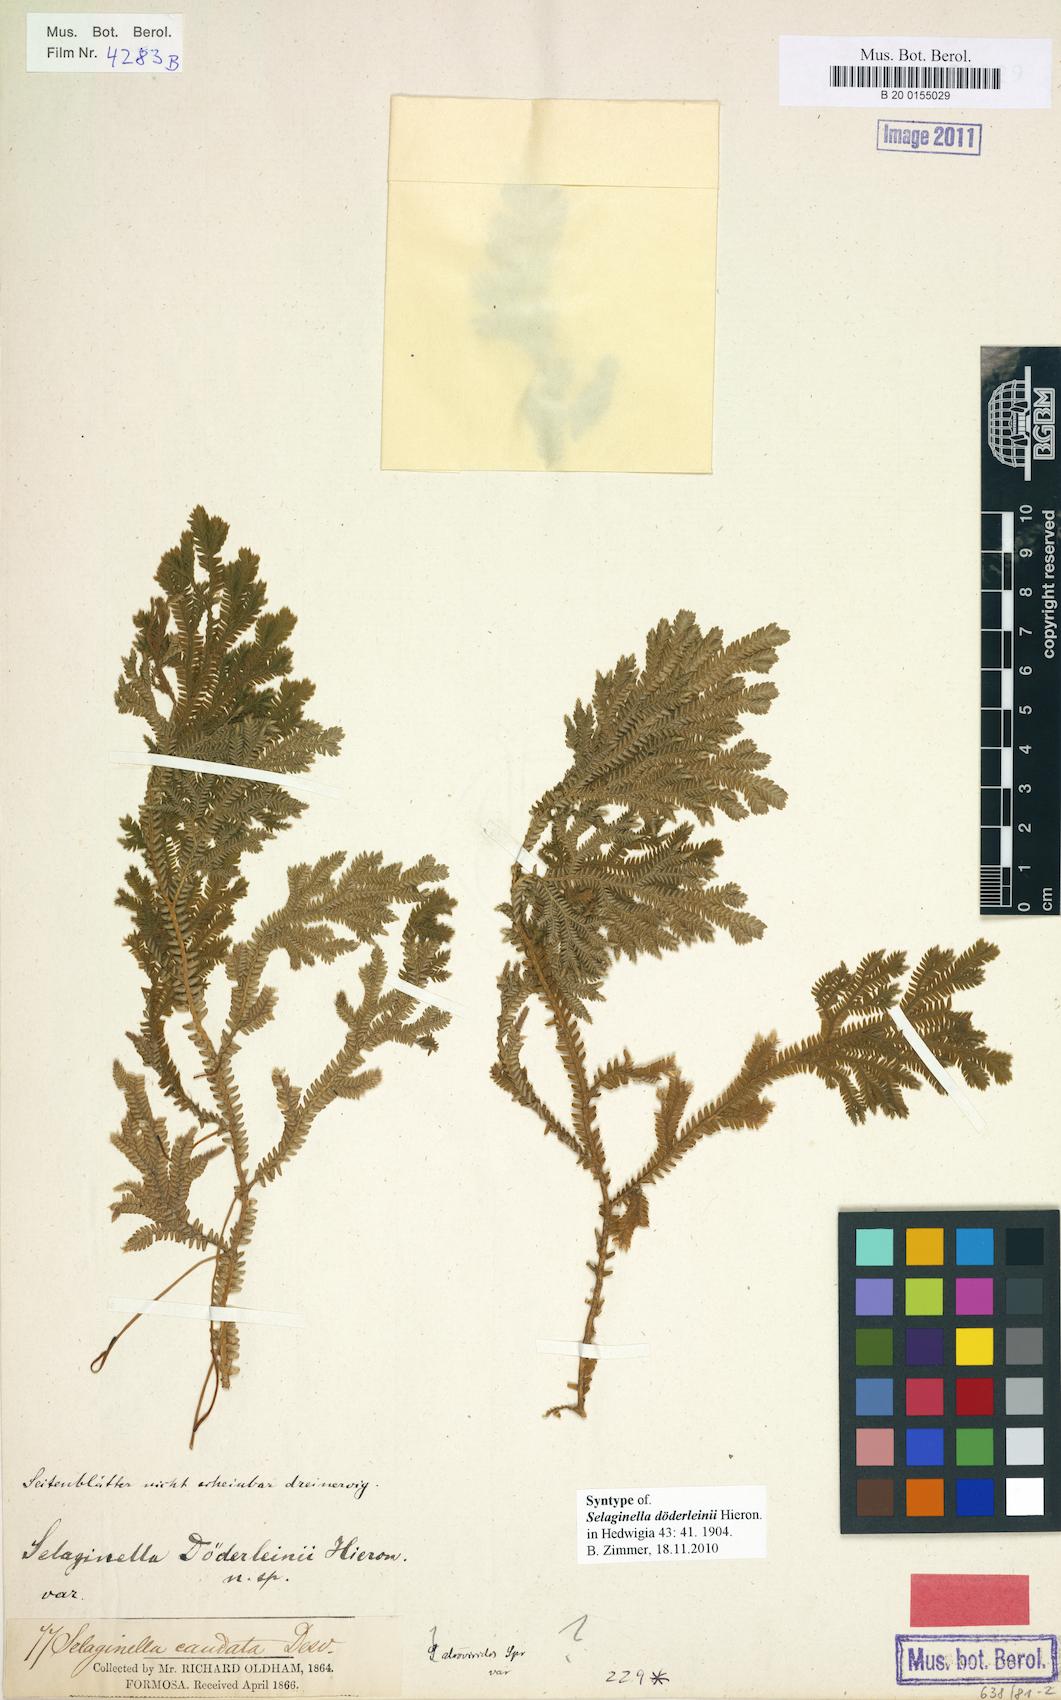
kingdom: Plantae
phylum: Tracheophyta
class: Lycopodiopsida
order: Selaginellales
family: Selaginellaceae
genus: Selaginella
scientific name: Selaginella doederleinii
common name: Greater selaginella
